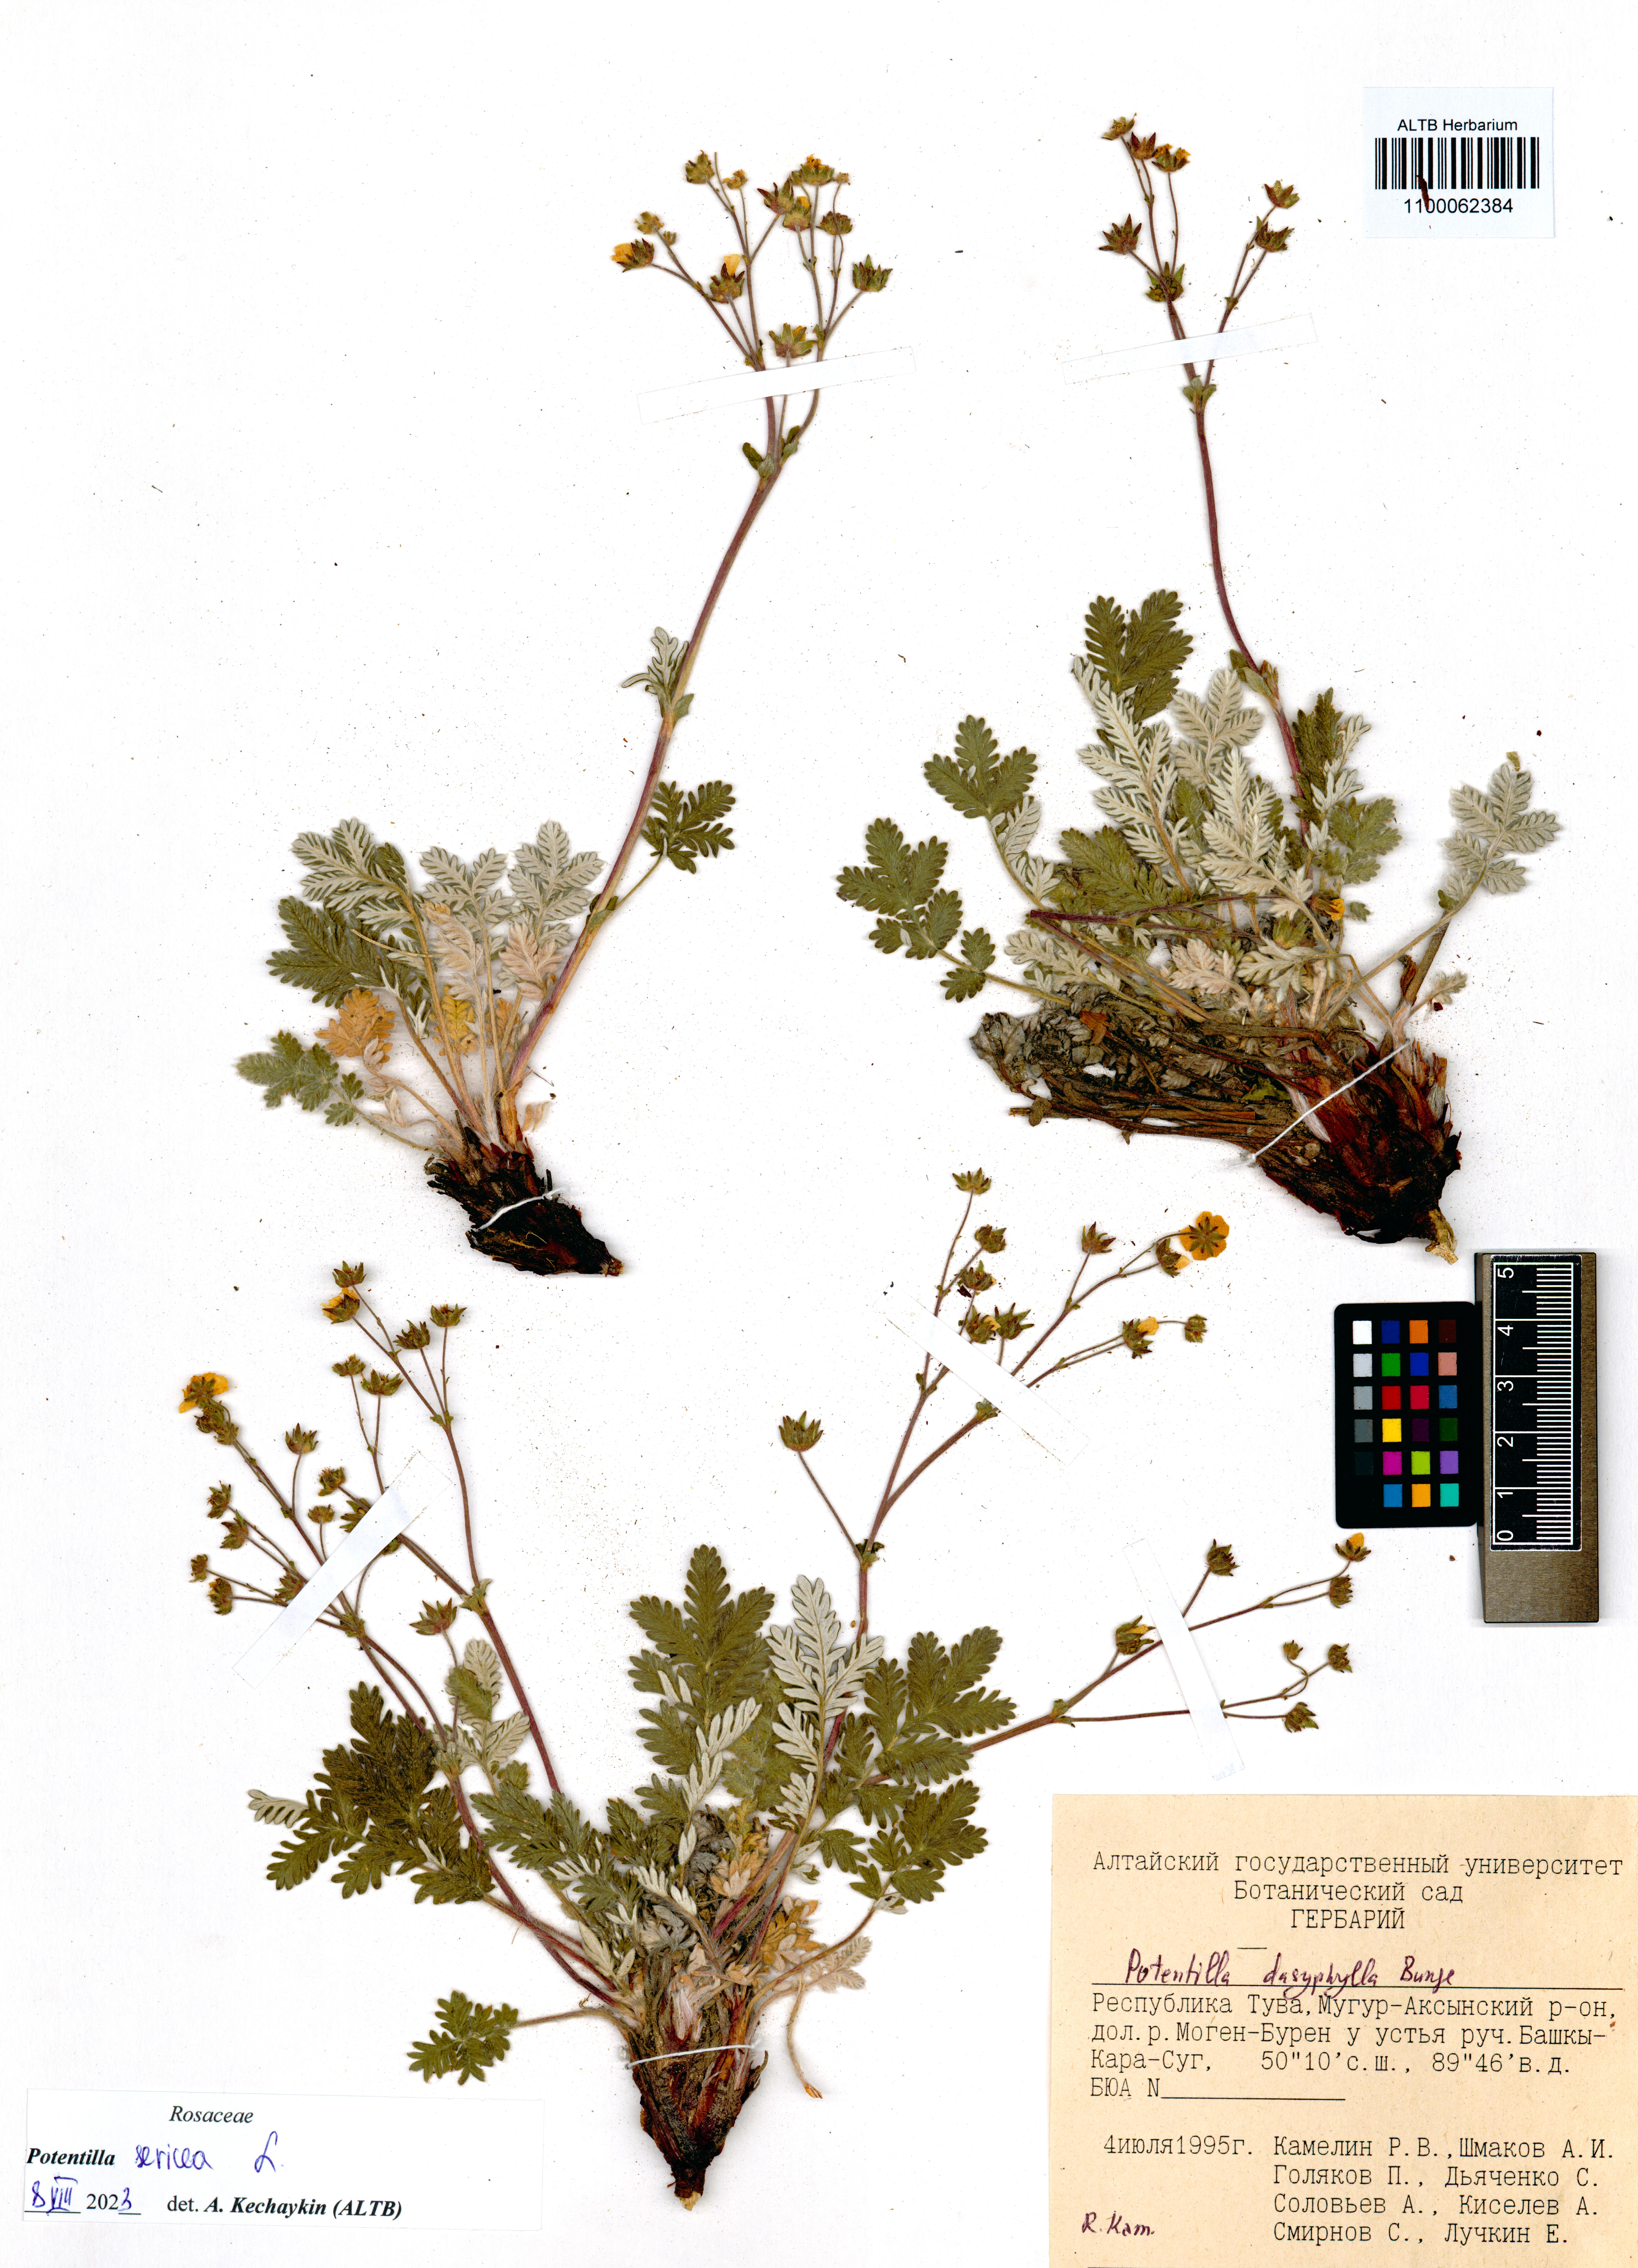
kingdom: Plantae
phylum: Tracheophyta
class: Magnoliopsida
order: Rosales
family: Rosaceae
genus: Potentilla
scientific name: Potentilla sericea
